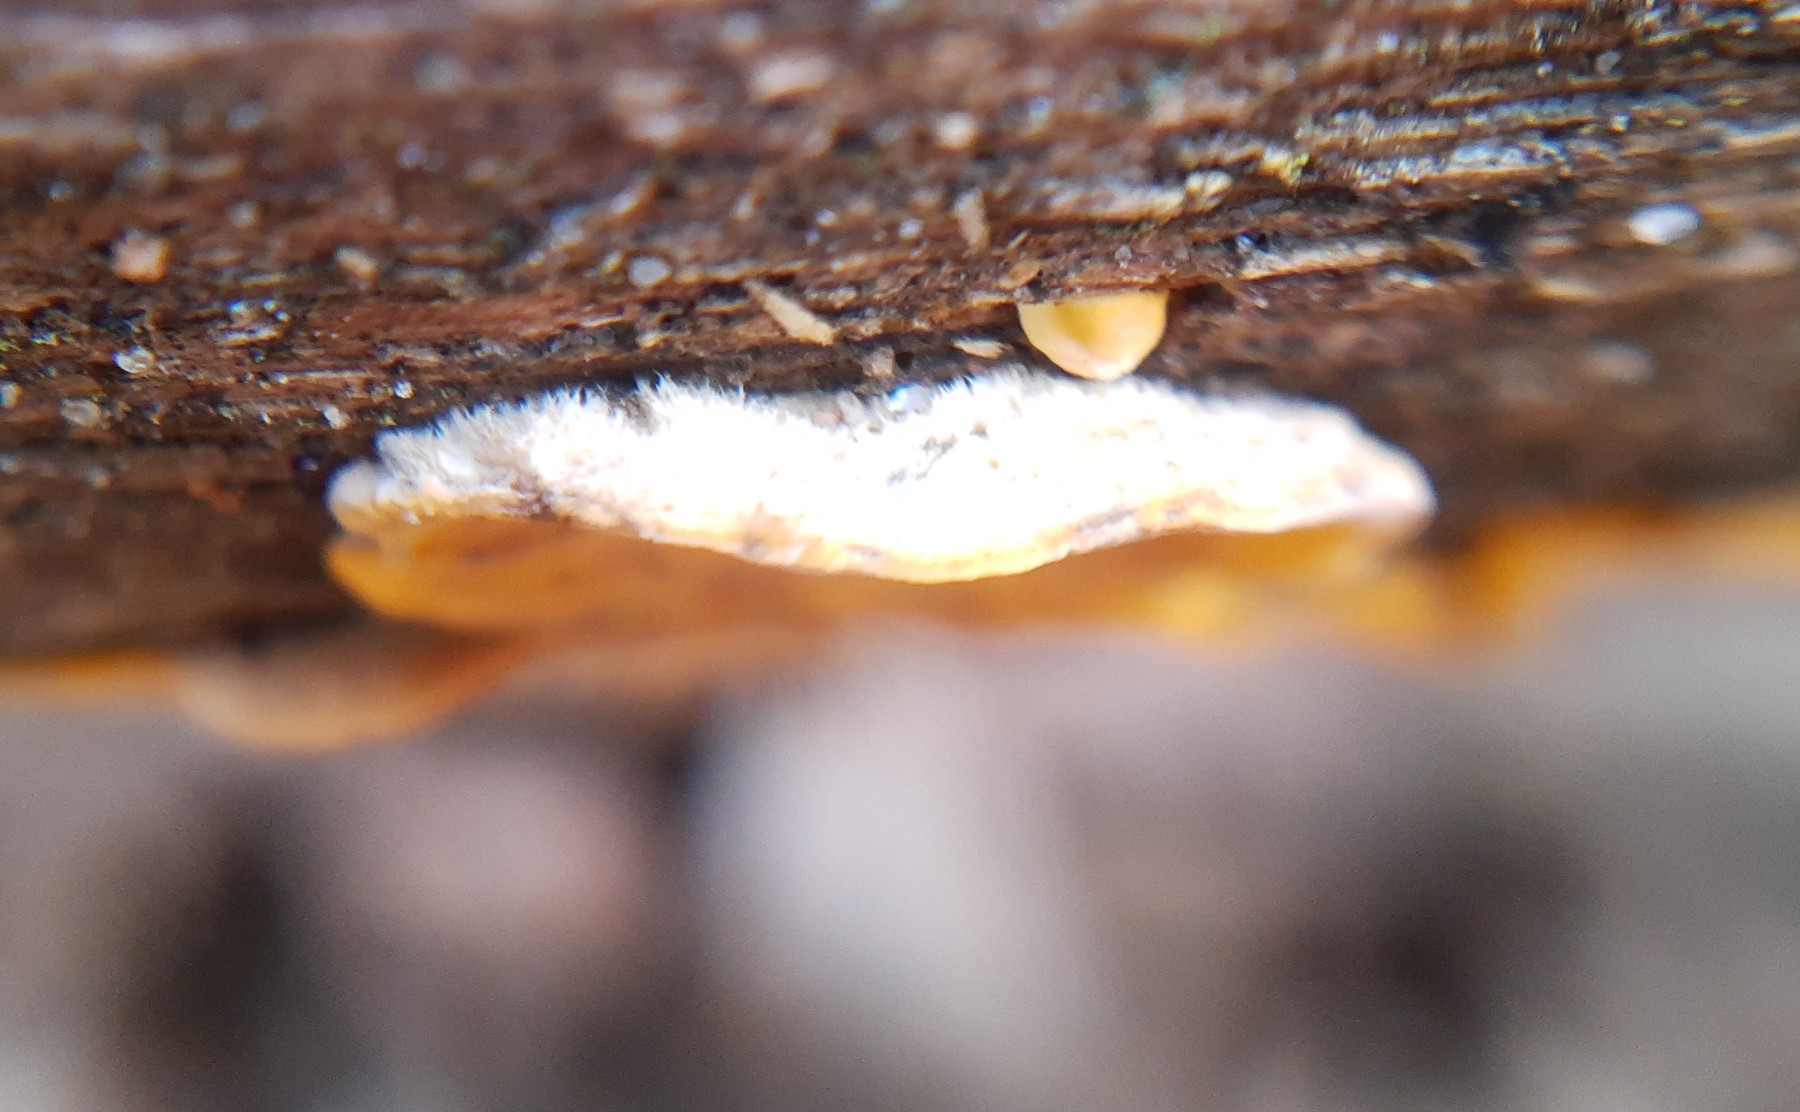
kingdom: Fungi
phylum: Basidiomycota
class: Agaricomycetes
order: Russulales
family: Stereaceae
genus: Stereum
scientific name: Stereum hirsutum
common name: håret lædersvamp
